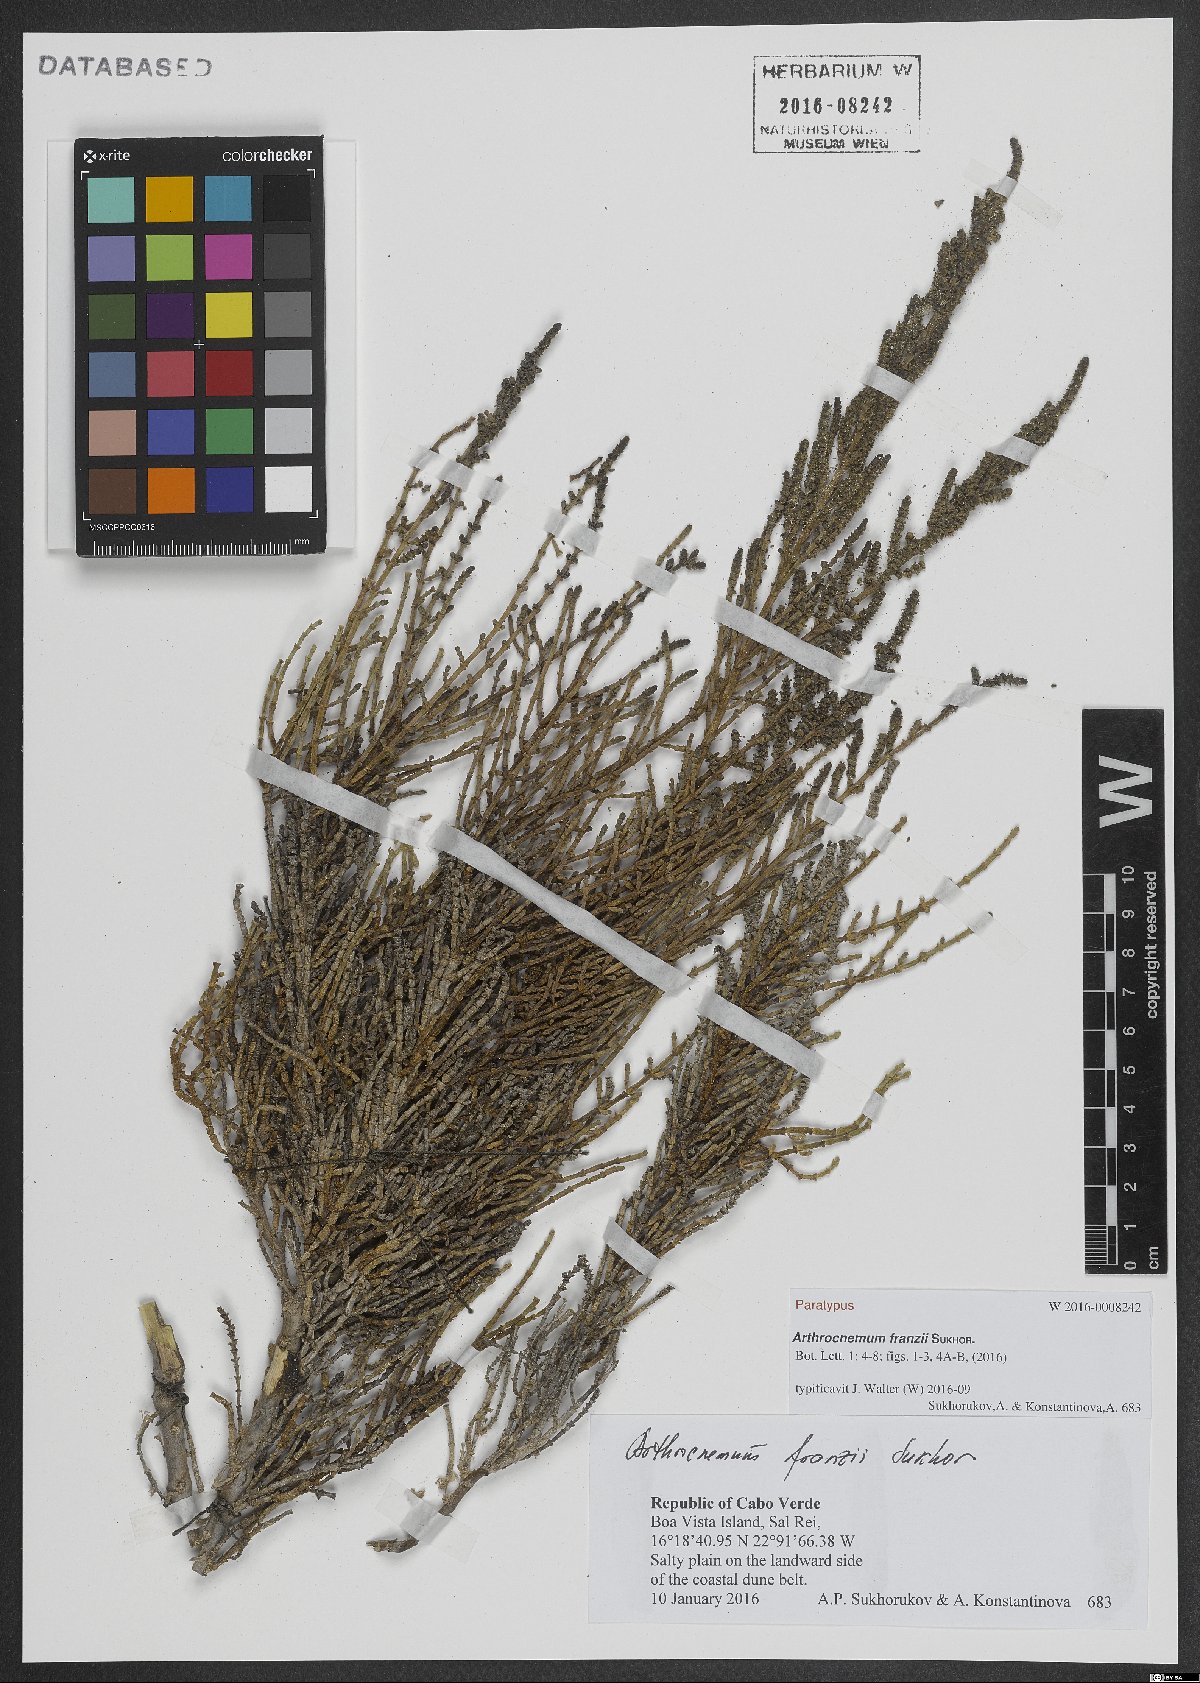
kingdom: Plantae
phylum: Tracheophyta
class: Magnoliopsida
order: Caryophyllales
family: Amaranthaceae
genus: Arthrocaulon
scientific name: Arthrocaulon franzii
